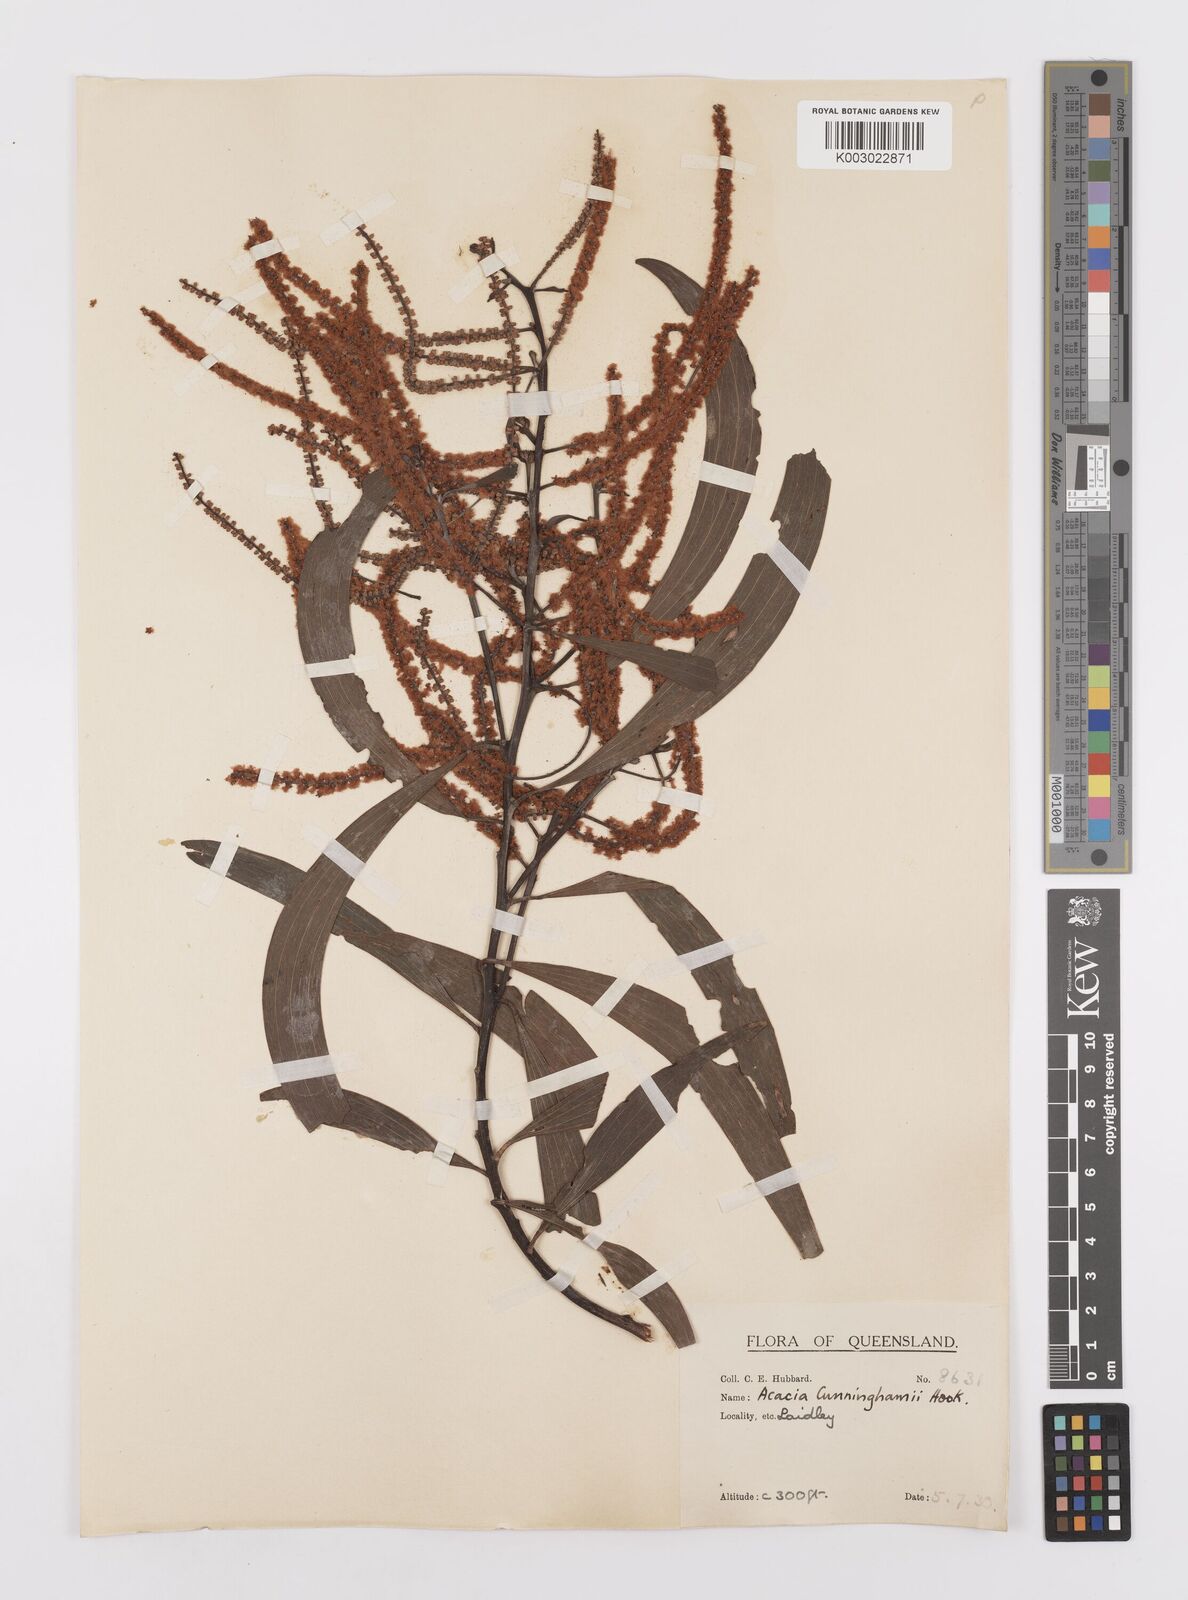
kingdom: Plantae
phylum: Tracheophyta
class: Magnoliopsida
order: Fabales
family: Fabaceae
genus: Acacia
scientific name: Acacia longispicata
